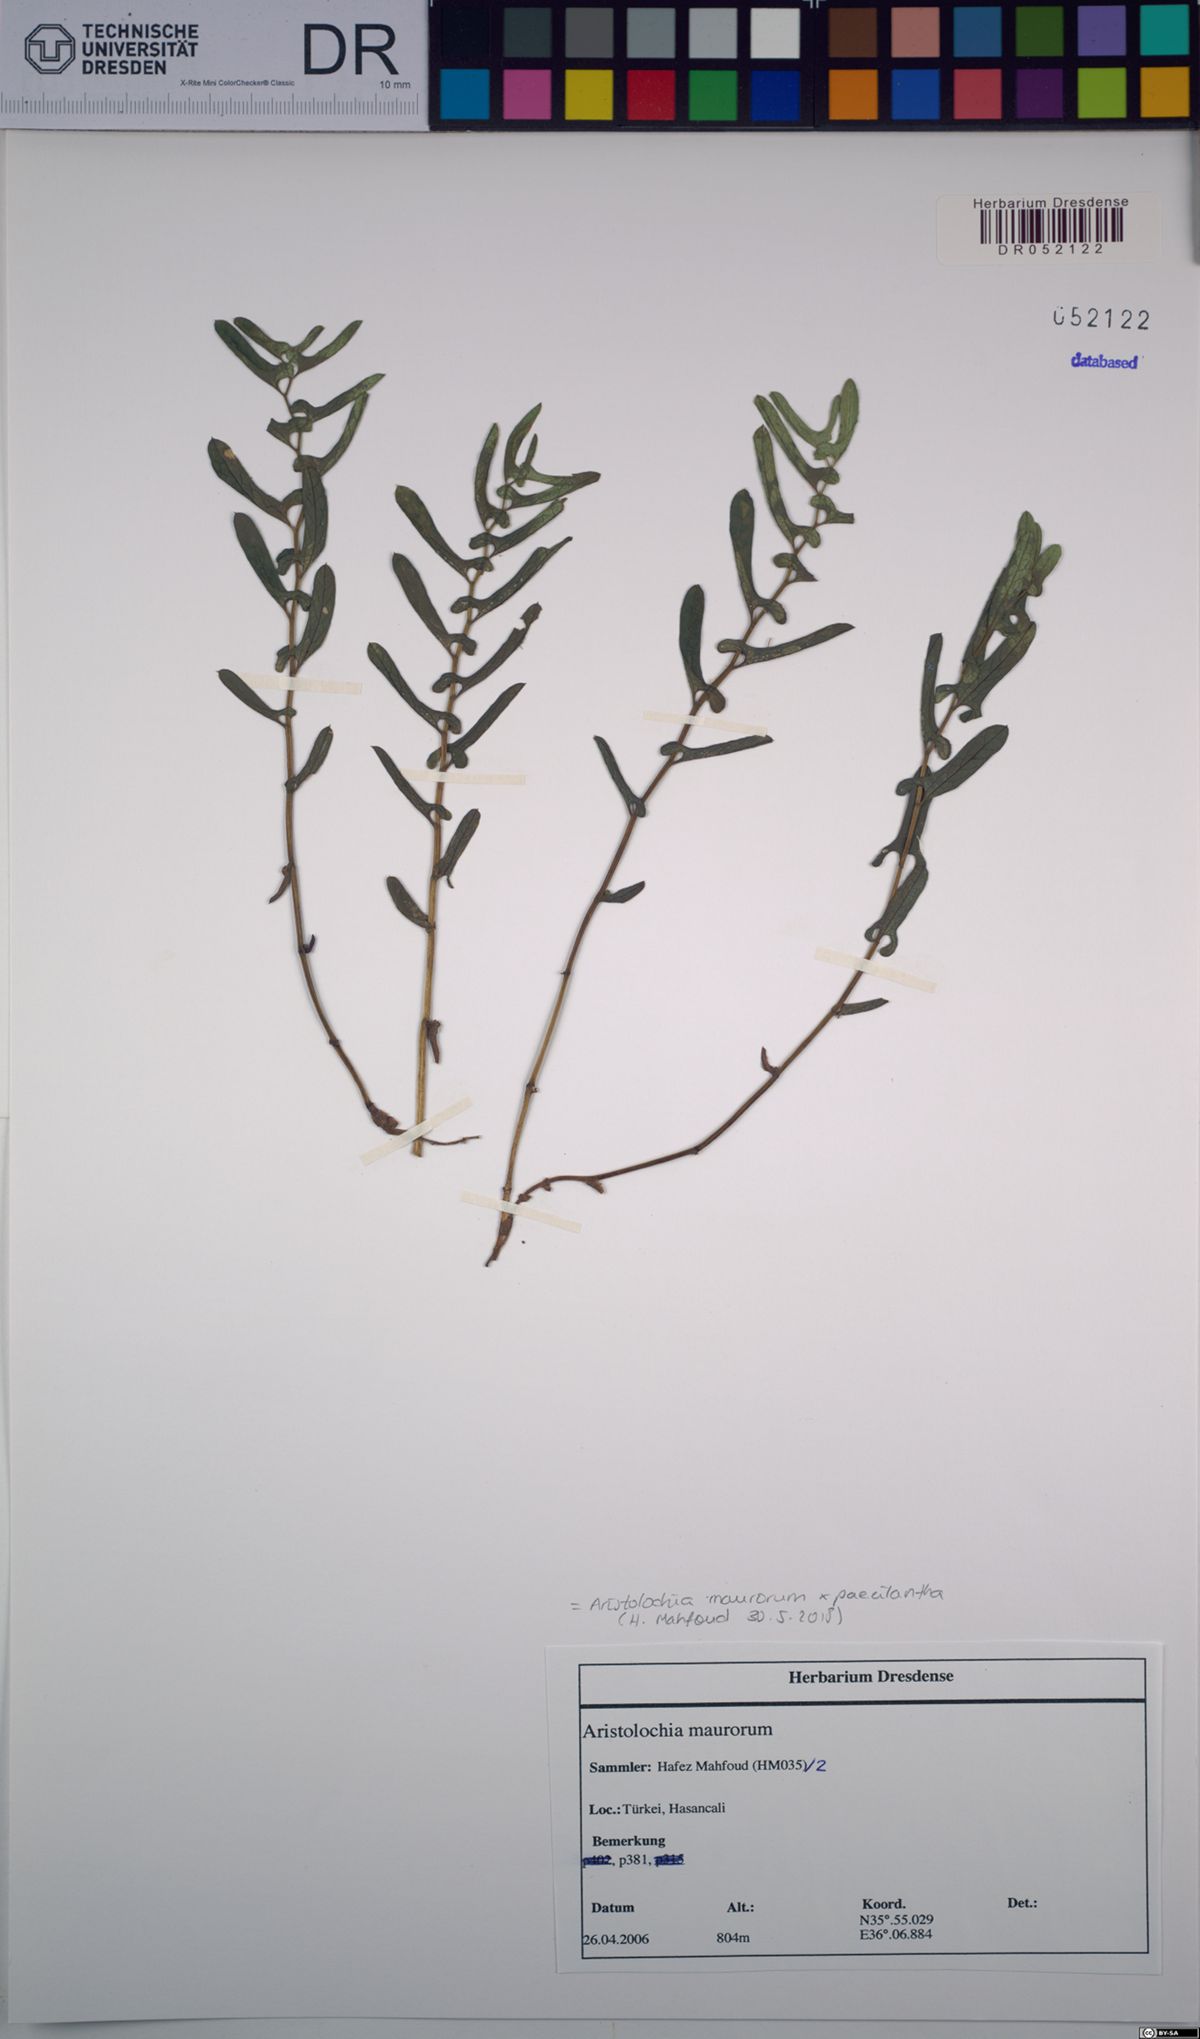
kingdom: Plantae
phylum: Tracheophyta
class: Magnoliopsida
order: Piperales
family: Aristolochiaceae
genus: Aristolochia
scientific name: Aristolochia maurorum
